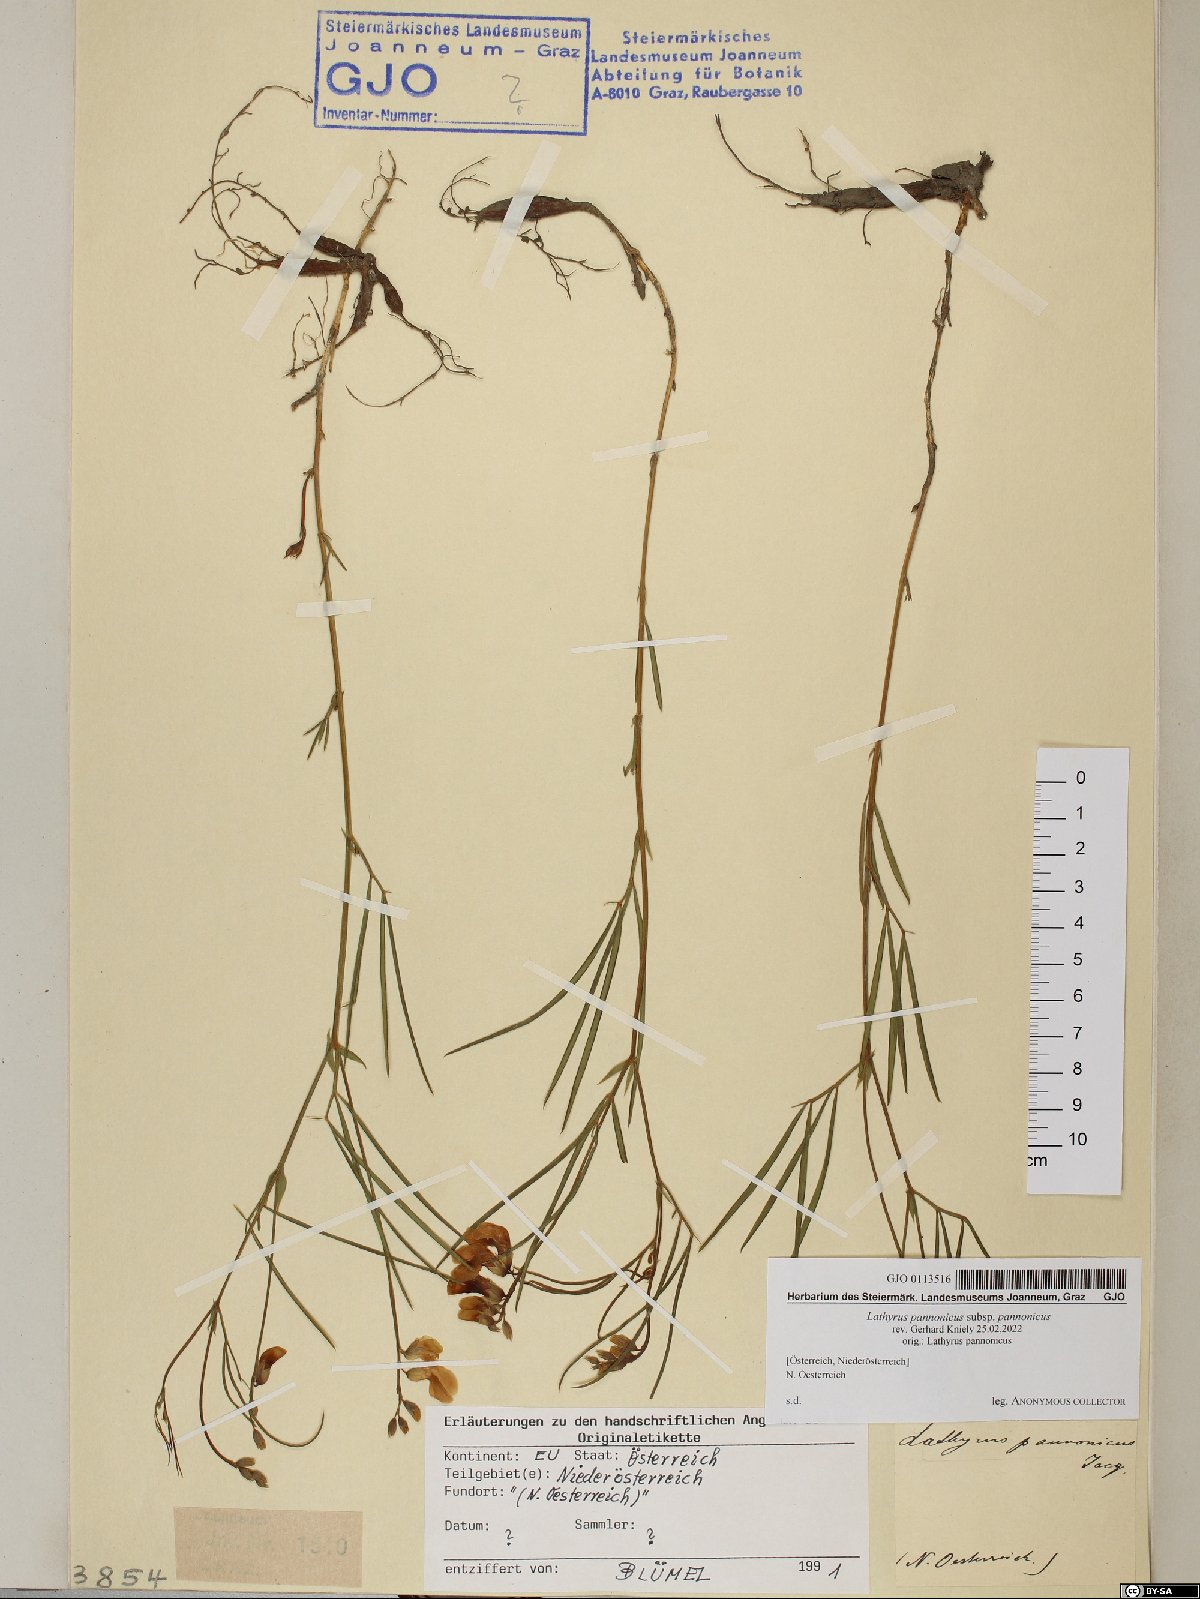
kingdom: Plantae
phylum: Tracheophyta
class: Magnoliopsida
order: Fabales
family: Fabaceae
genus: Lathyrus
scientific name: Lathyrus pannonicus
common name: Pea
